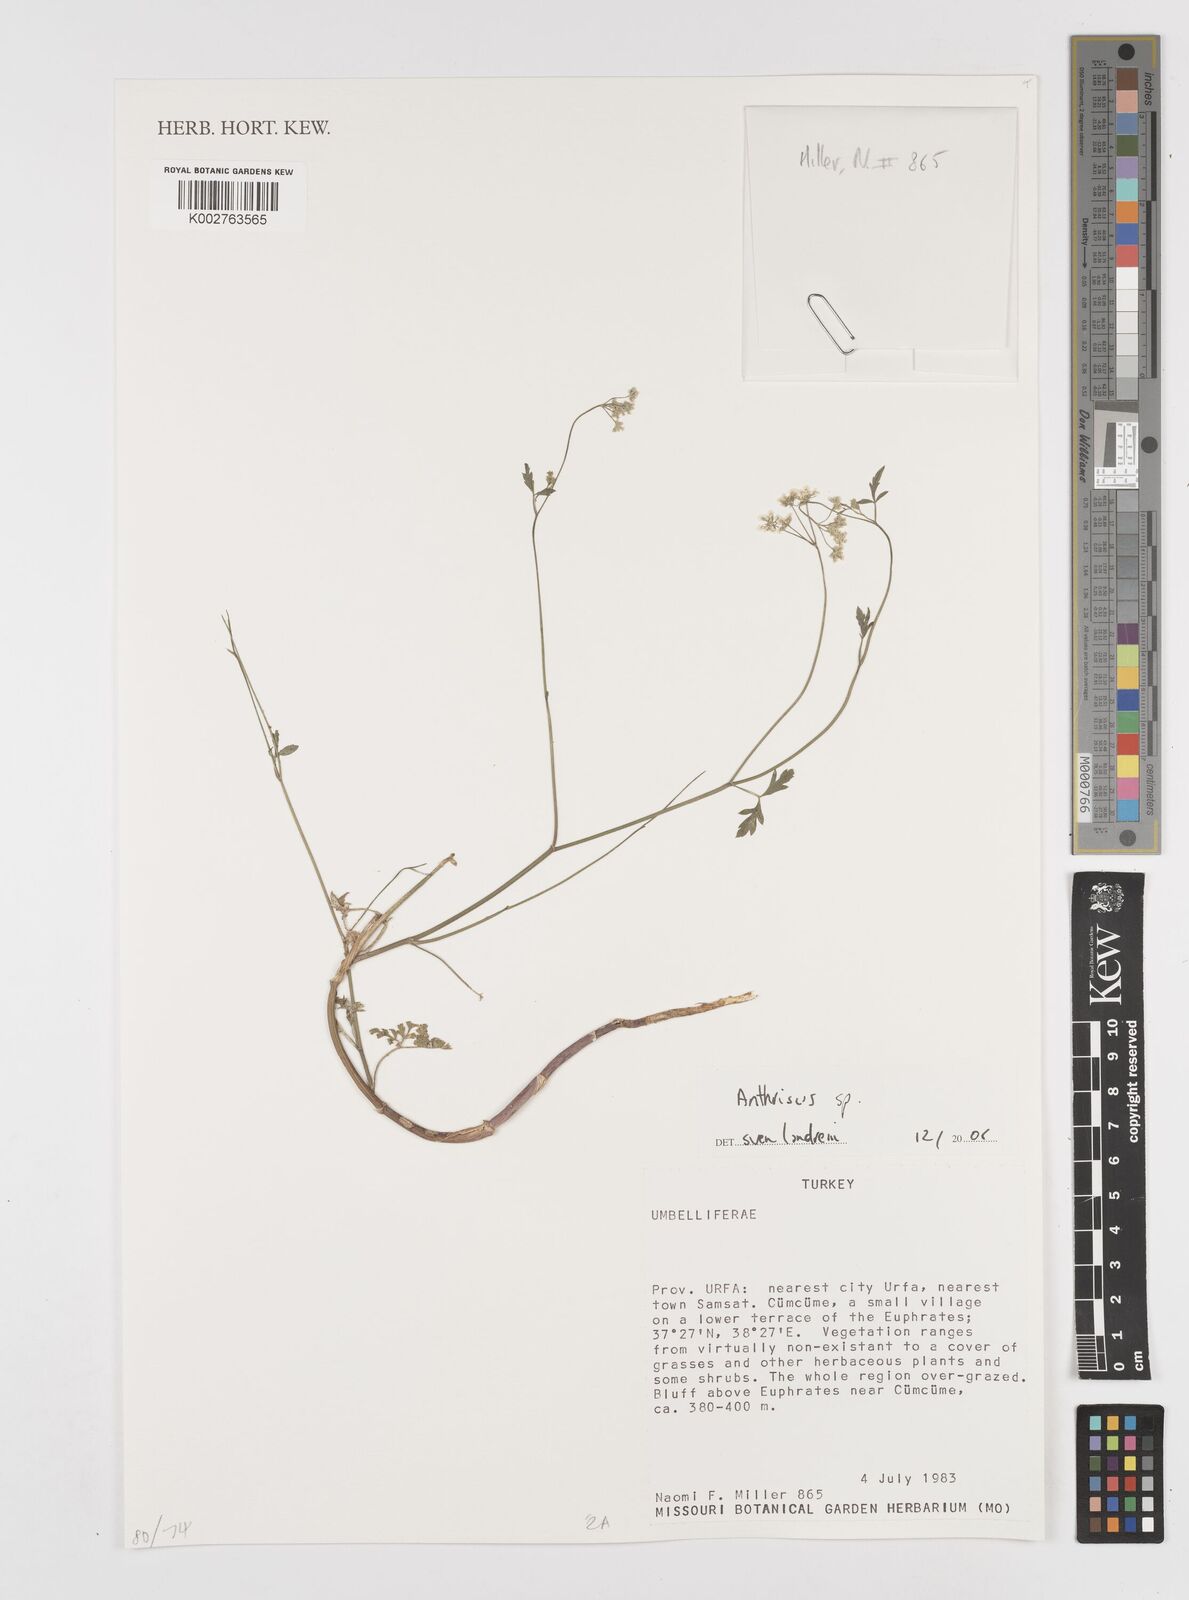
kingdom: Plantae
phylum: Tracheophyta
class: Magnoliopsida
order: Apiales
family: Apiaceae
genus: Anthriscus
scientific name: Anthriscus
